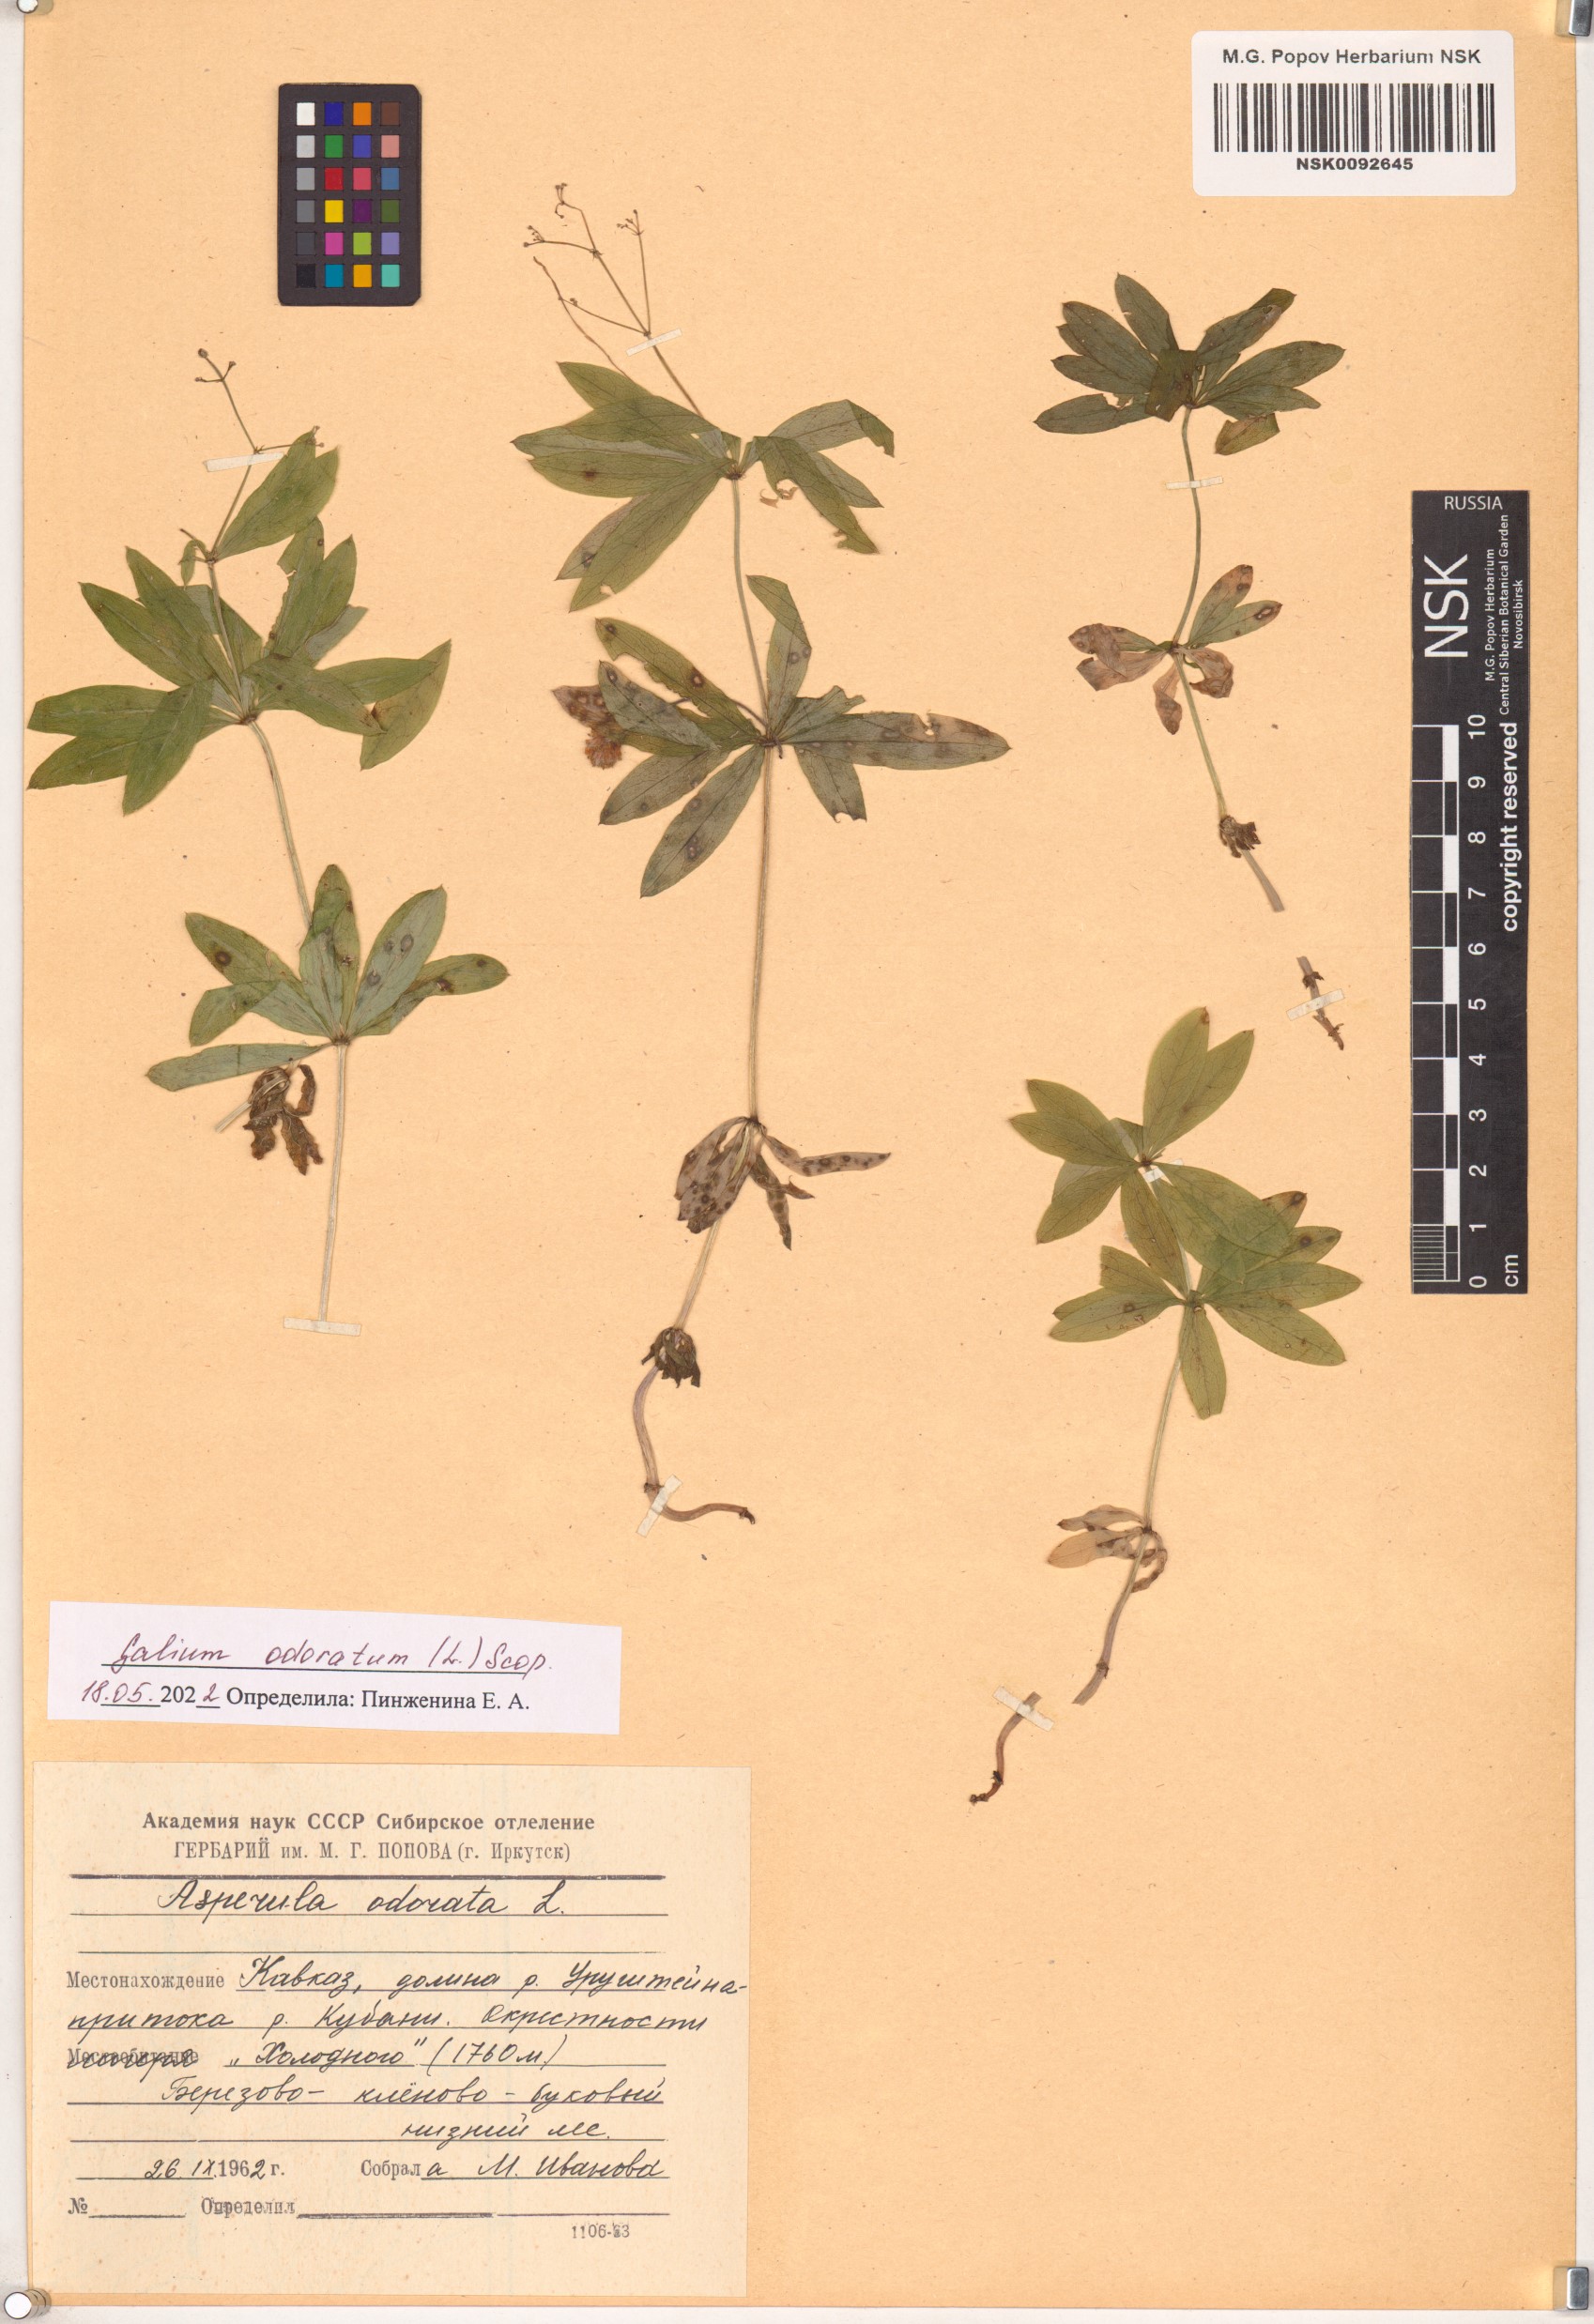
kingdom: Plantae
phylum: Tracheophyta
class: Magnoliopsida
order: Gentianales
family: Rubiaceae
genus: Galium
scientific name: Galium odoratum
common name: Sweet woodruff
